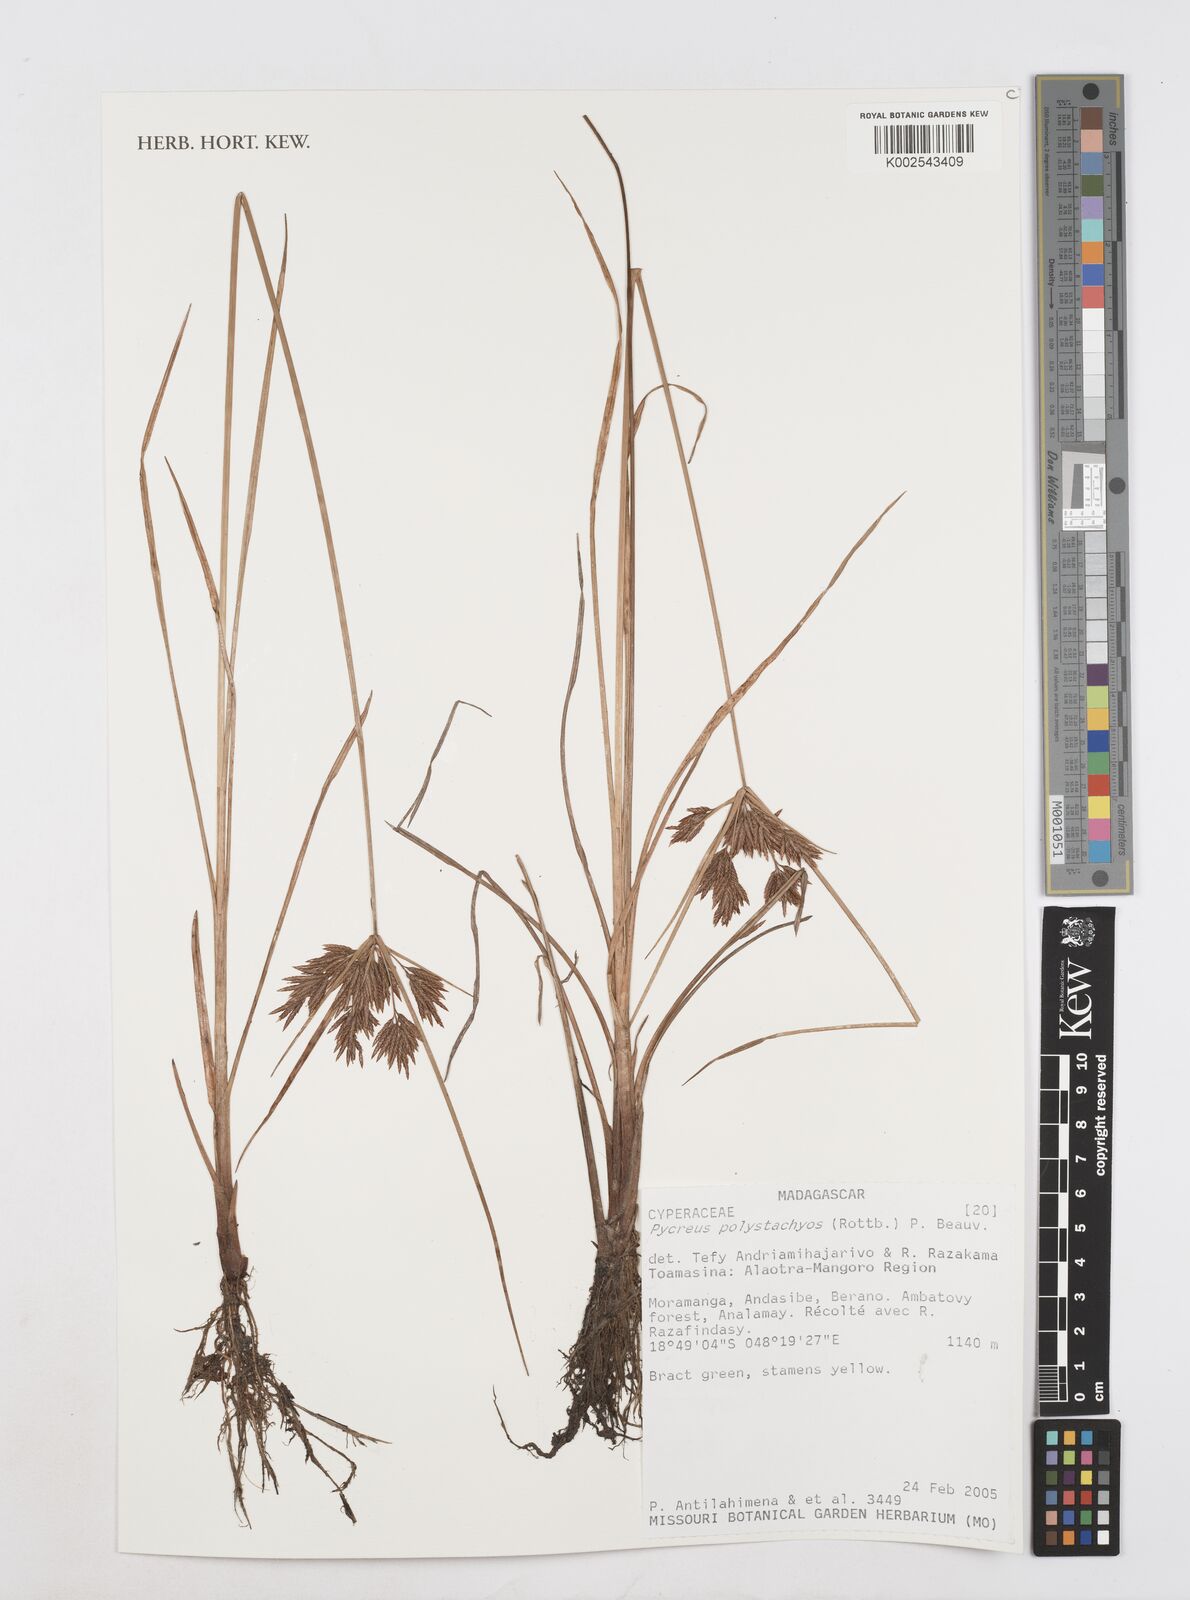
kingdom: Plantae
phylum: Tracheophyta
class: Liliopsida
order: Poales
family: Cyperaceae
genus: Cyperus
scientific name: Cyperus polystachyos
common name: Bunchy flat sedge
